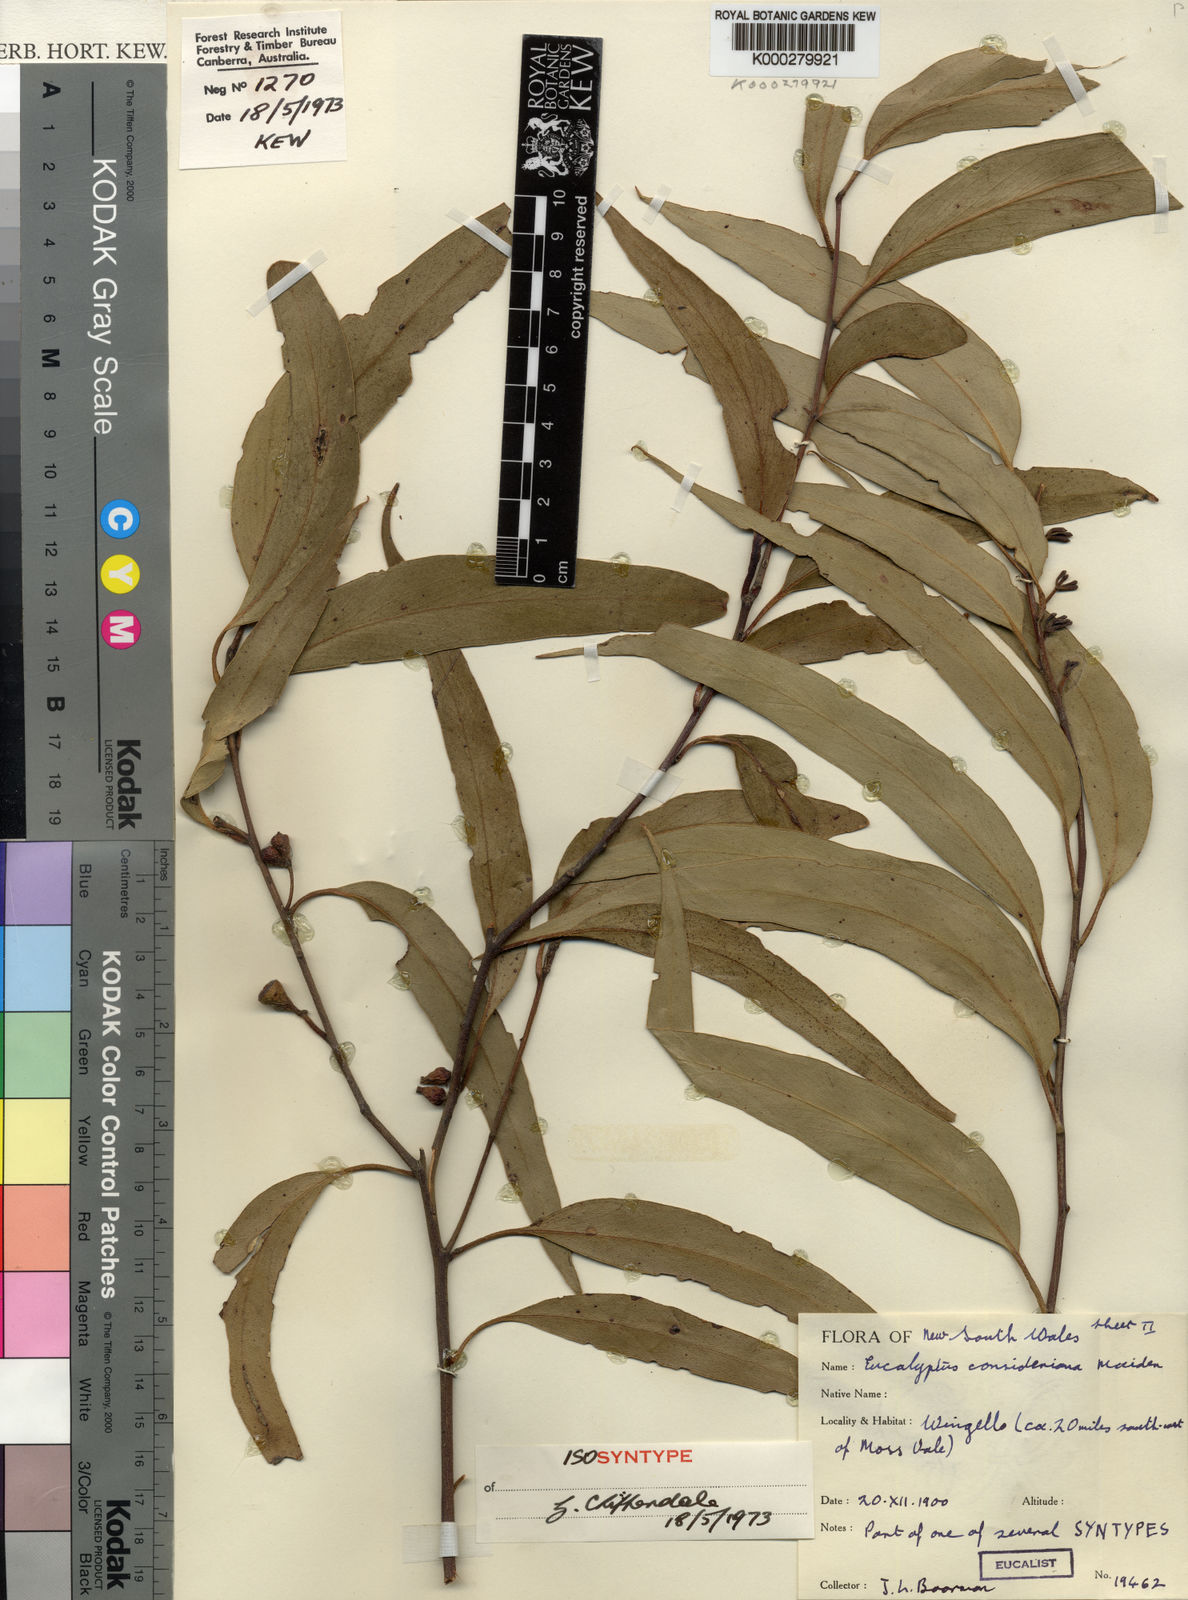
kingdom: Plantae
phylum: Tracheophyta
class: Magnoliopsida
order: Myrtales
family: Myrtaceae
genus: Eucalyptus
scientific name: Eucalyptus consideniana
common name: Prickly stringybark
